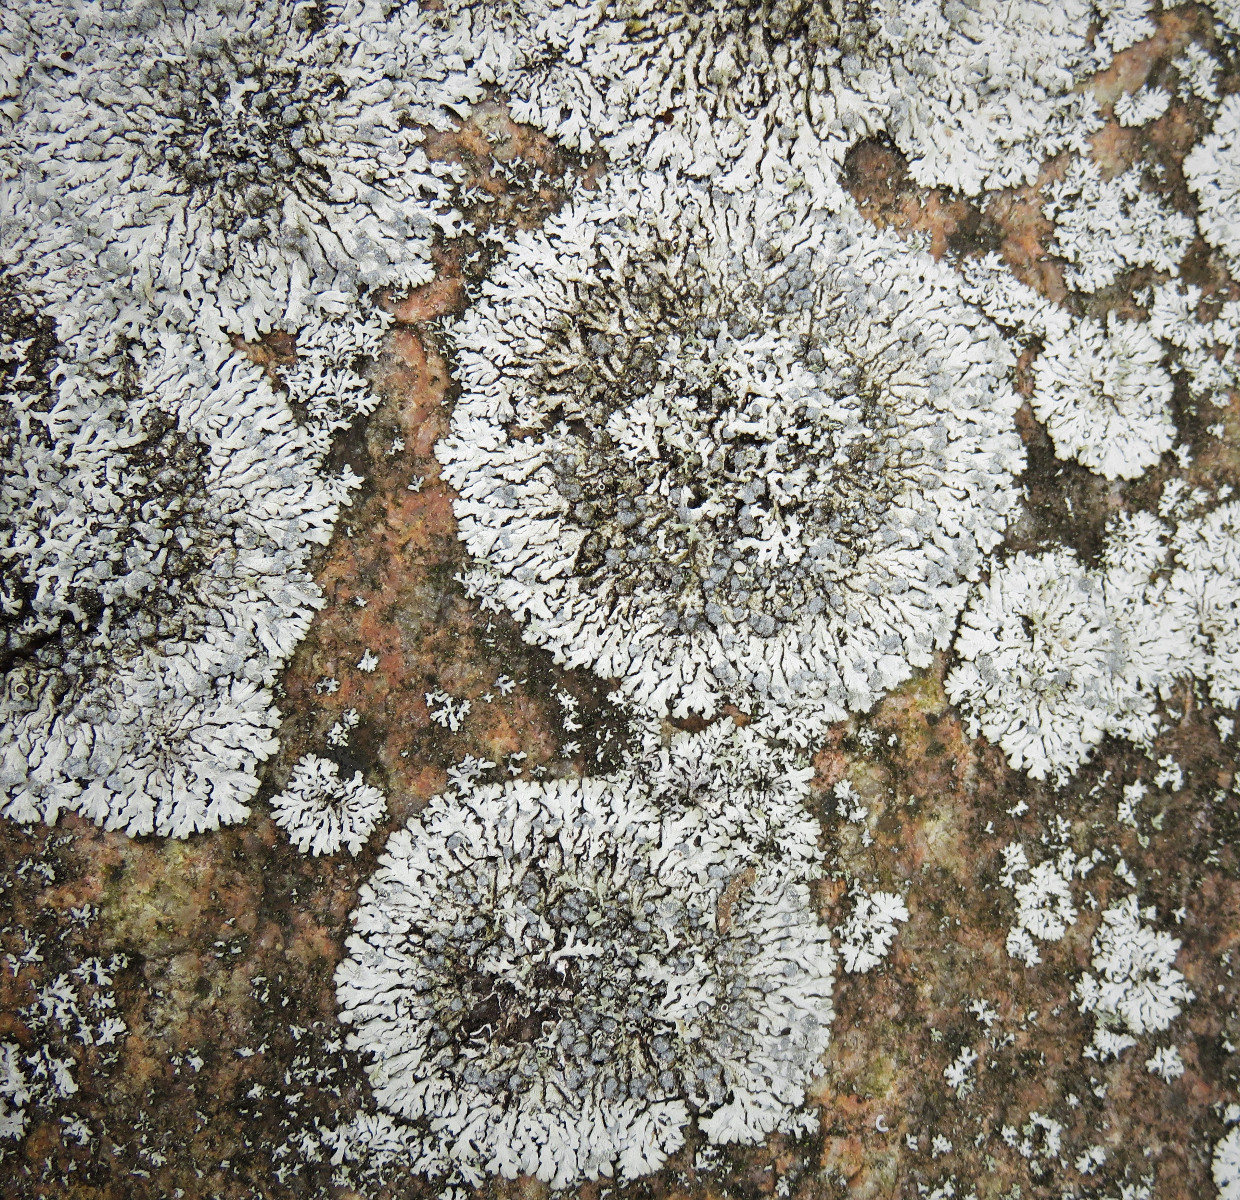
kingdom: Fungi
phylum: Ascomycota
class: Lecanoromycetes
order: Caliciales
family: Physciaceae
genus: Physcia
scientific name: Physcia caesia
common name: blågrå rosetlav
